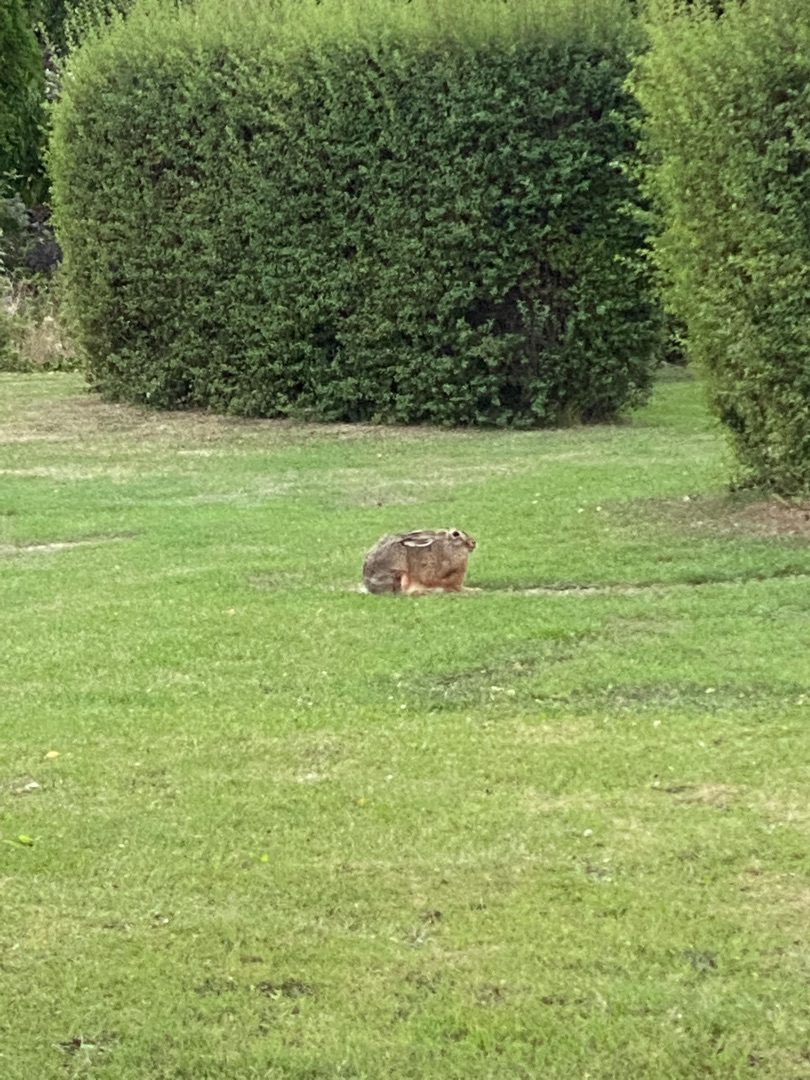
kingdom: Animalia
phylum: Chordata
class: Mammalia
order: Lagomorpha
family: Leporidae
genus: Lepus
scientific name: Lepus europaeus
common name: Hare
